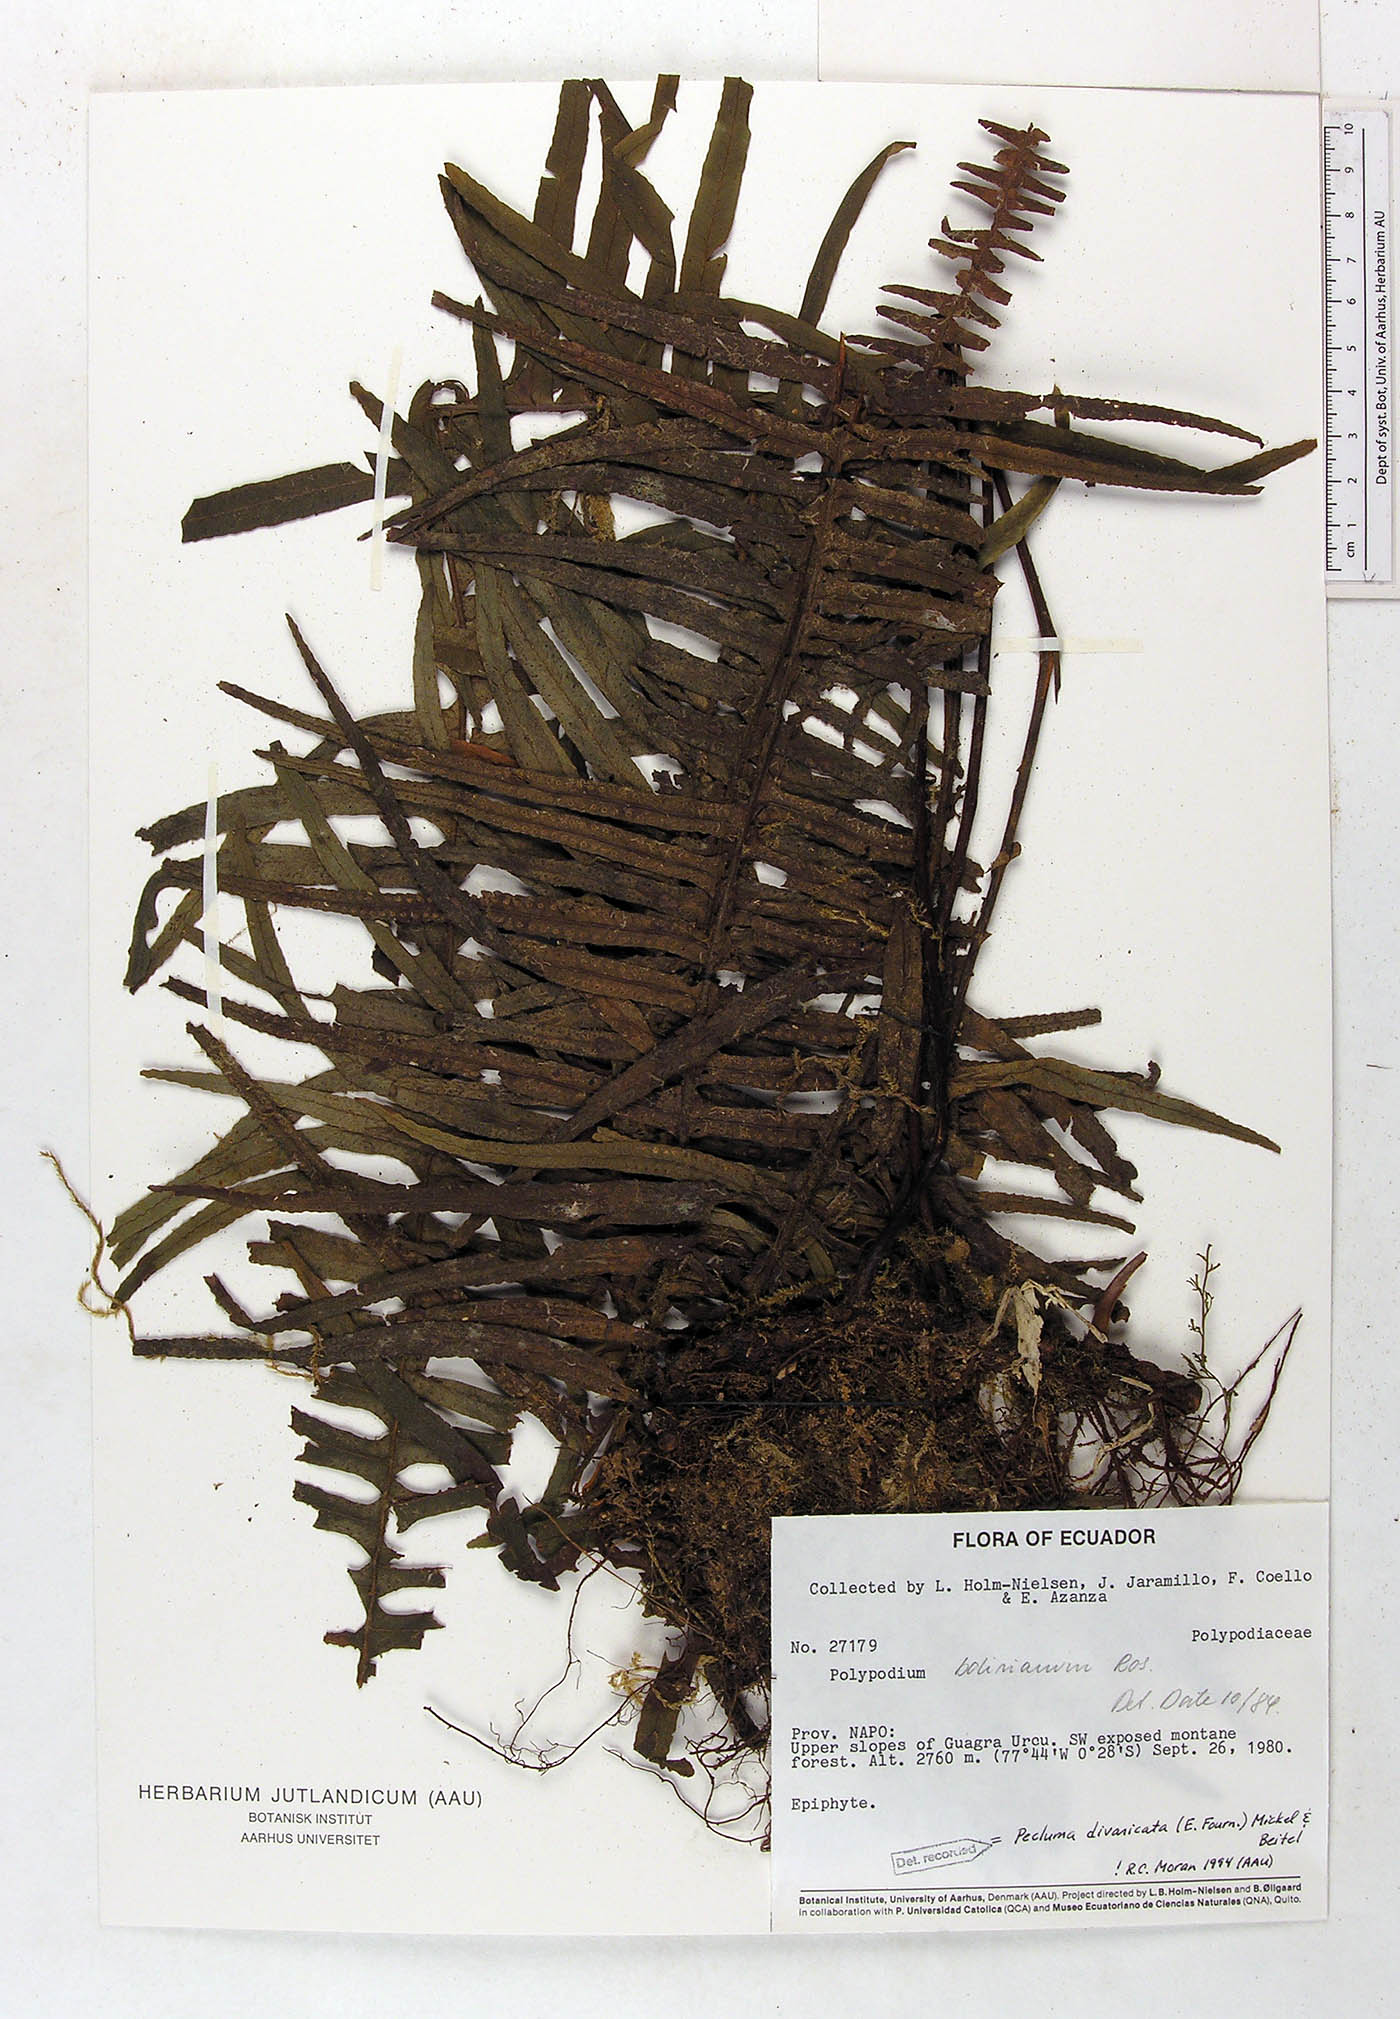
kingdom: Plantae
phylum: Tracheophyta
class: Polypodiopsida
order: Polypodiales
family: Polypodiaceae
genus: Pecluma
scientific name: Pecluma divaricata
